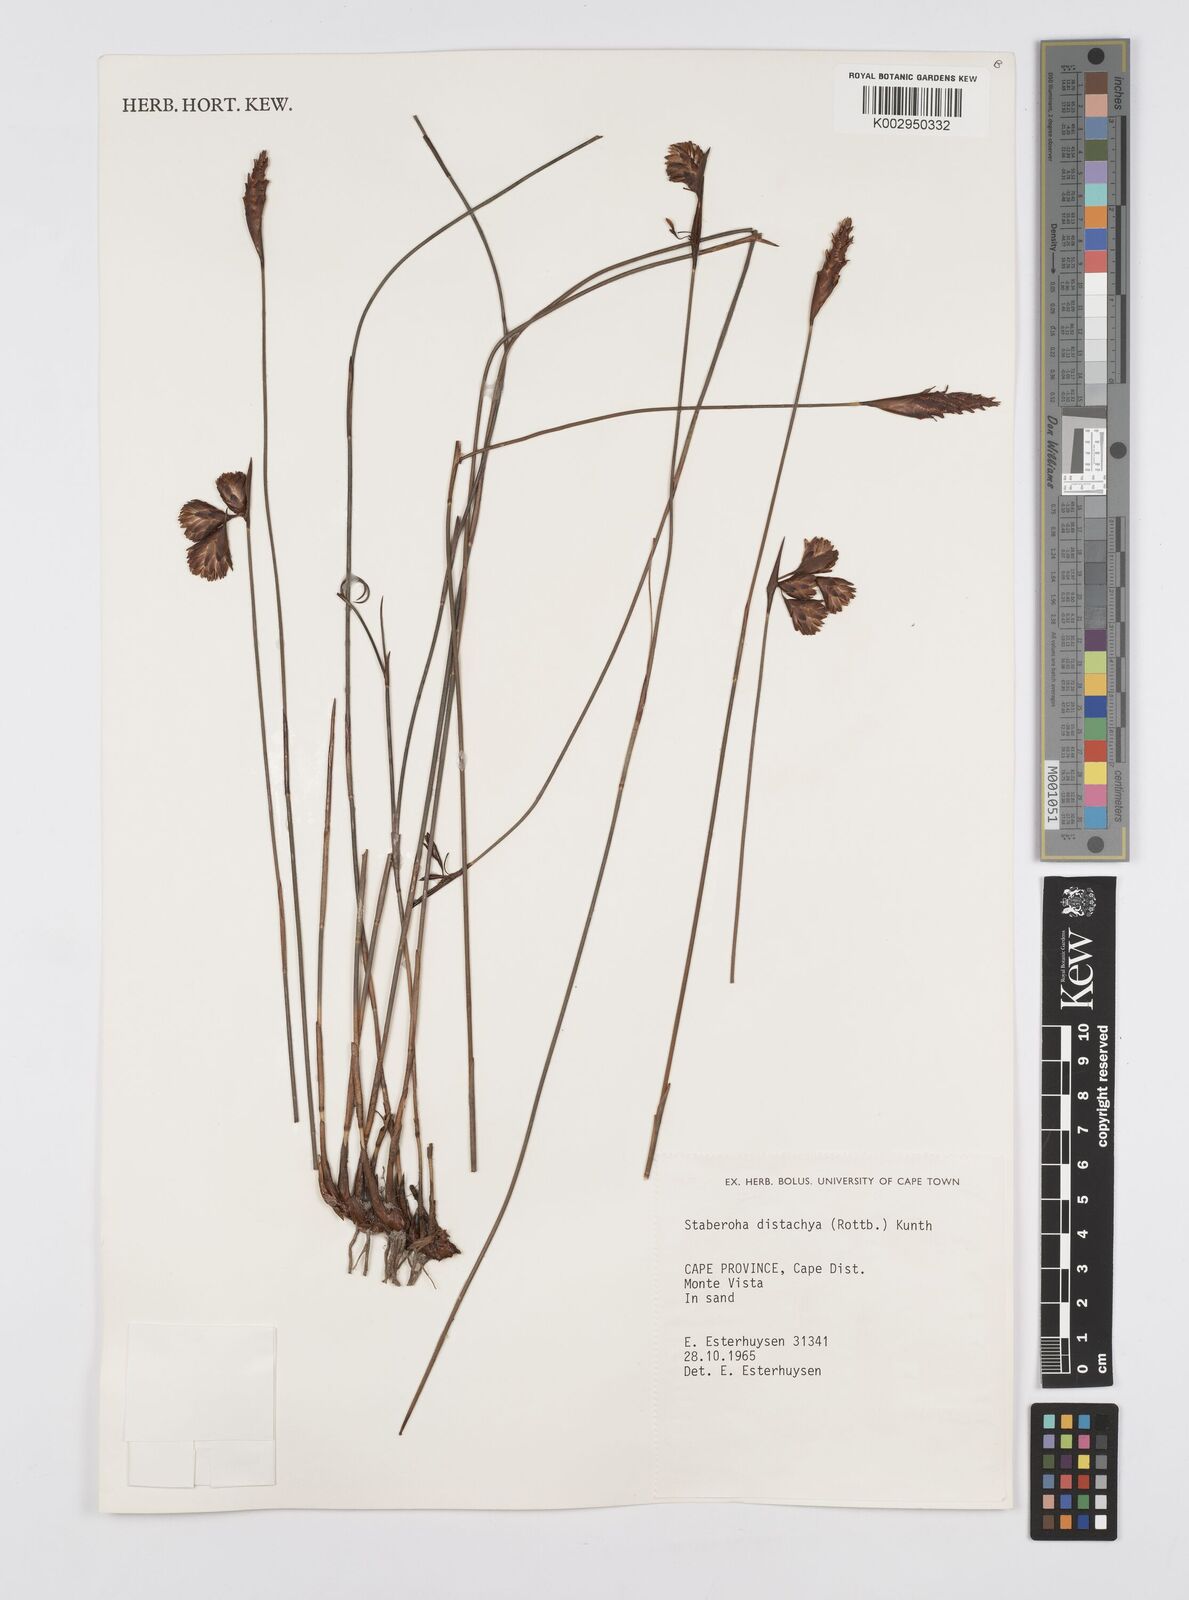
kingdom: Plantae
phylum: Tracheophyta
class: Liliopsida
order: Poales
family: Restionaceae
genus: Staberoha
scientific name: Staberoha distachyos
